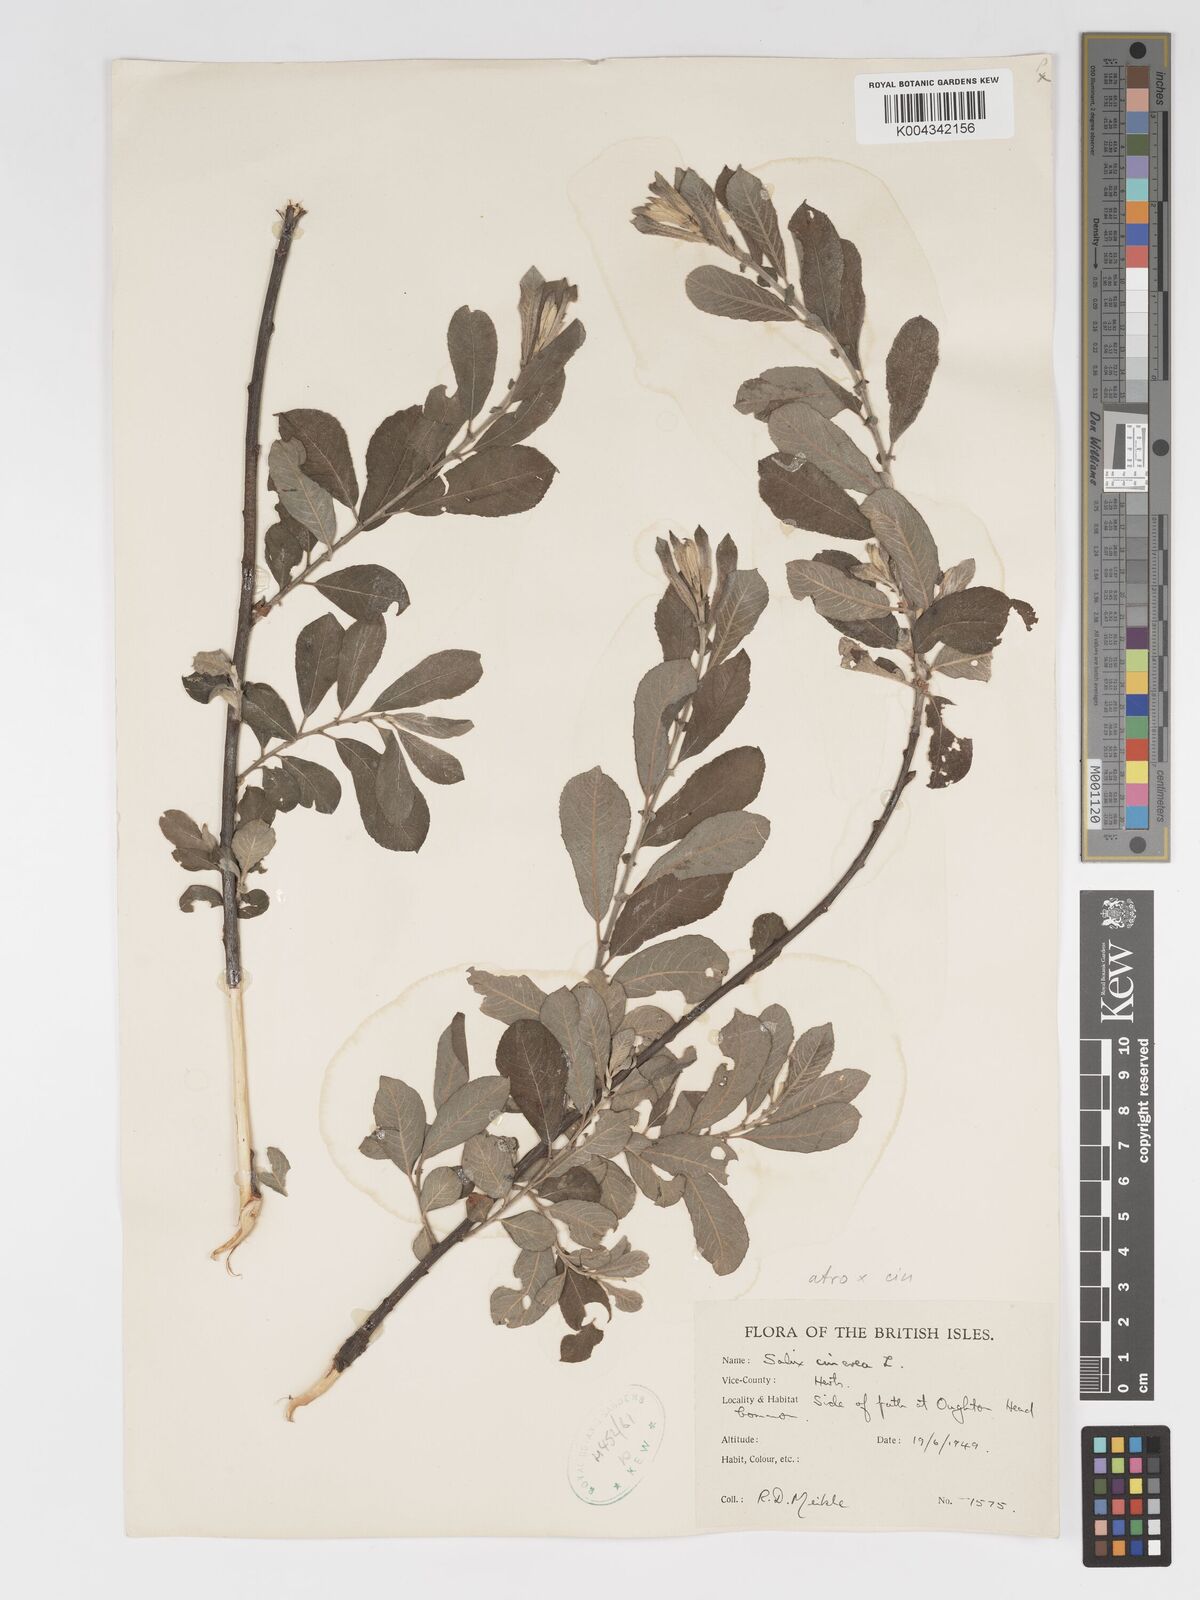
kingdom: Plantae
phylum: Tracheophyta
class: Magnoliopsida
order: Malpighiales
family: Salicaceae
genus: Salix
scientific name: Salix
